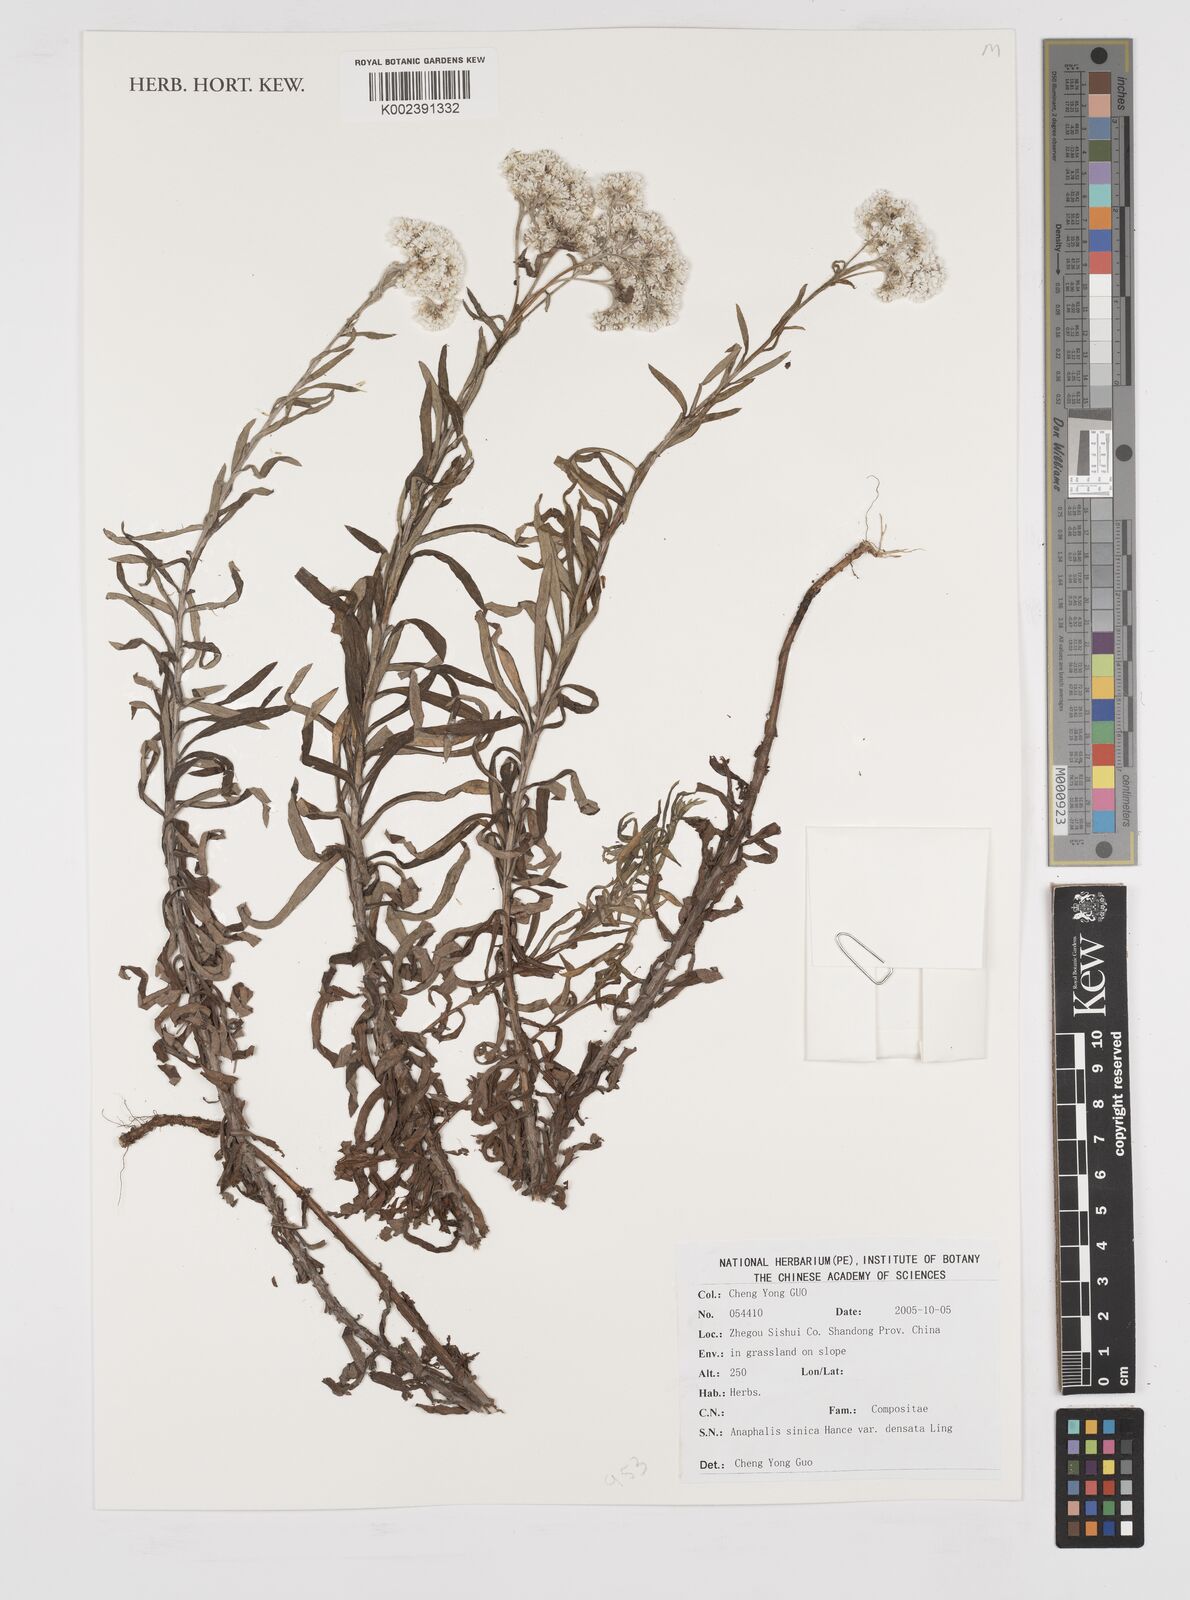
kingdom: Plantae
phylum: Tracheophyta
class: Magnoliopsida
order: Asterales
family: Asteraceae
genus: Anaphalis
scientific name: Anaphalis sinica
